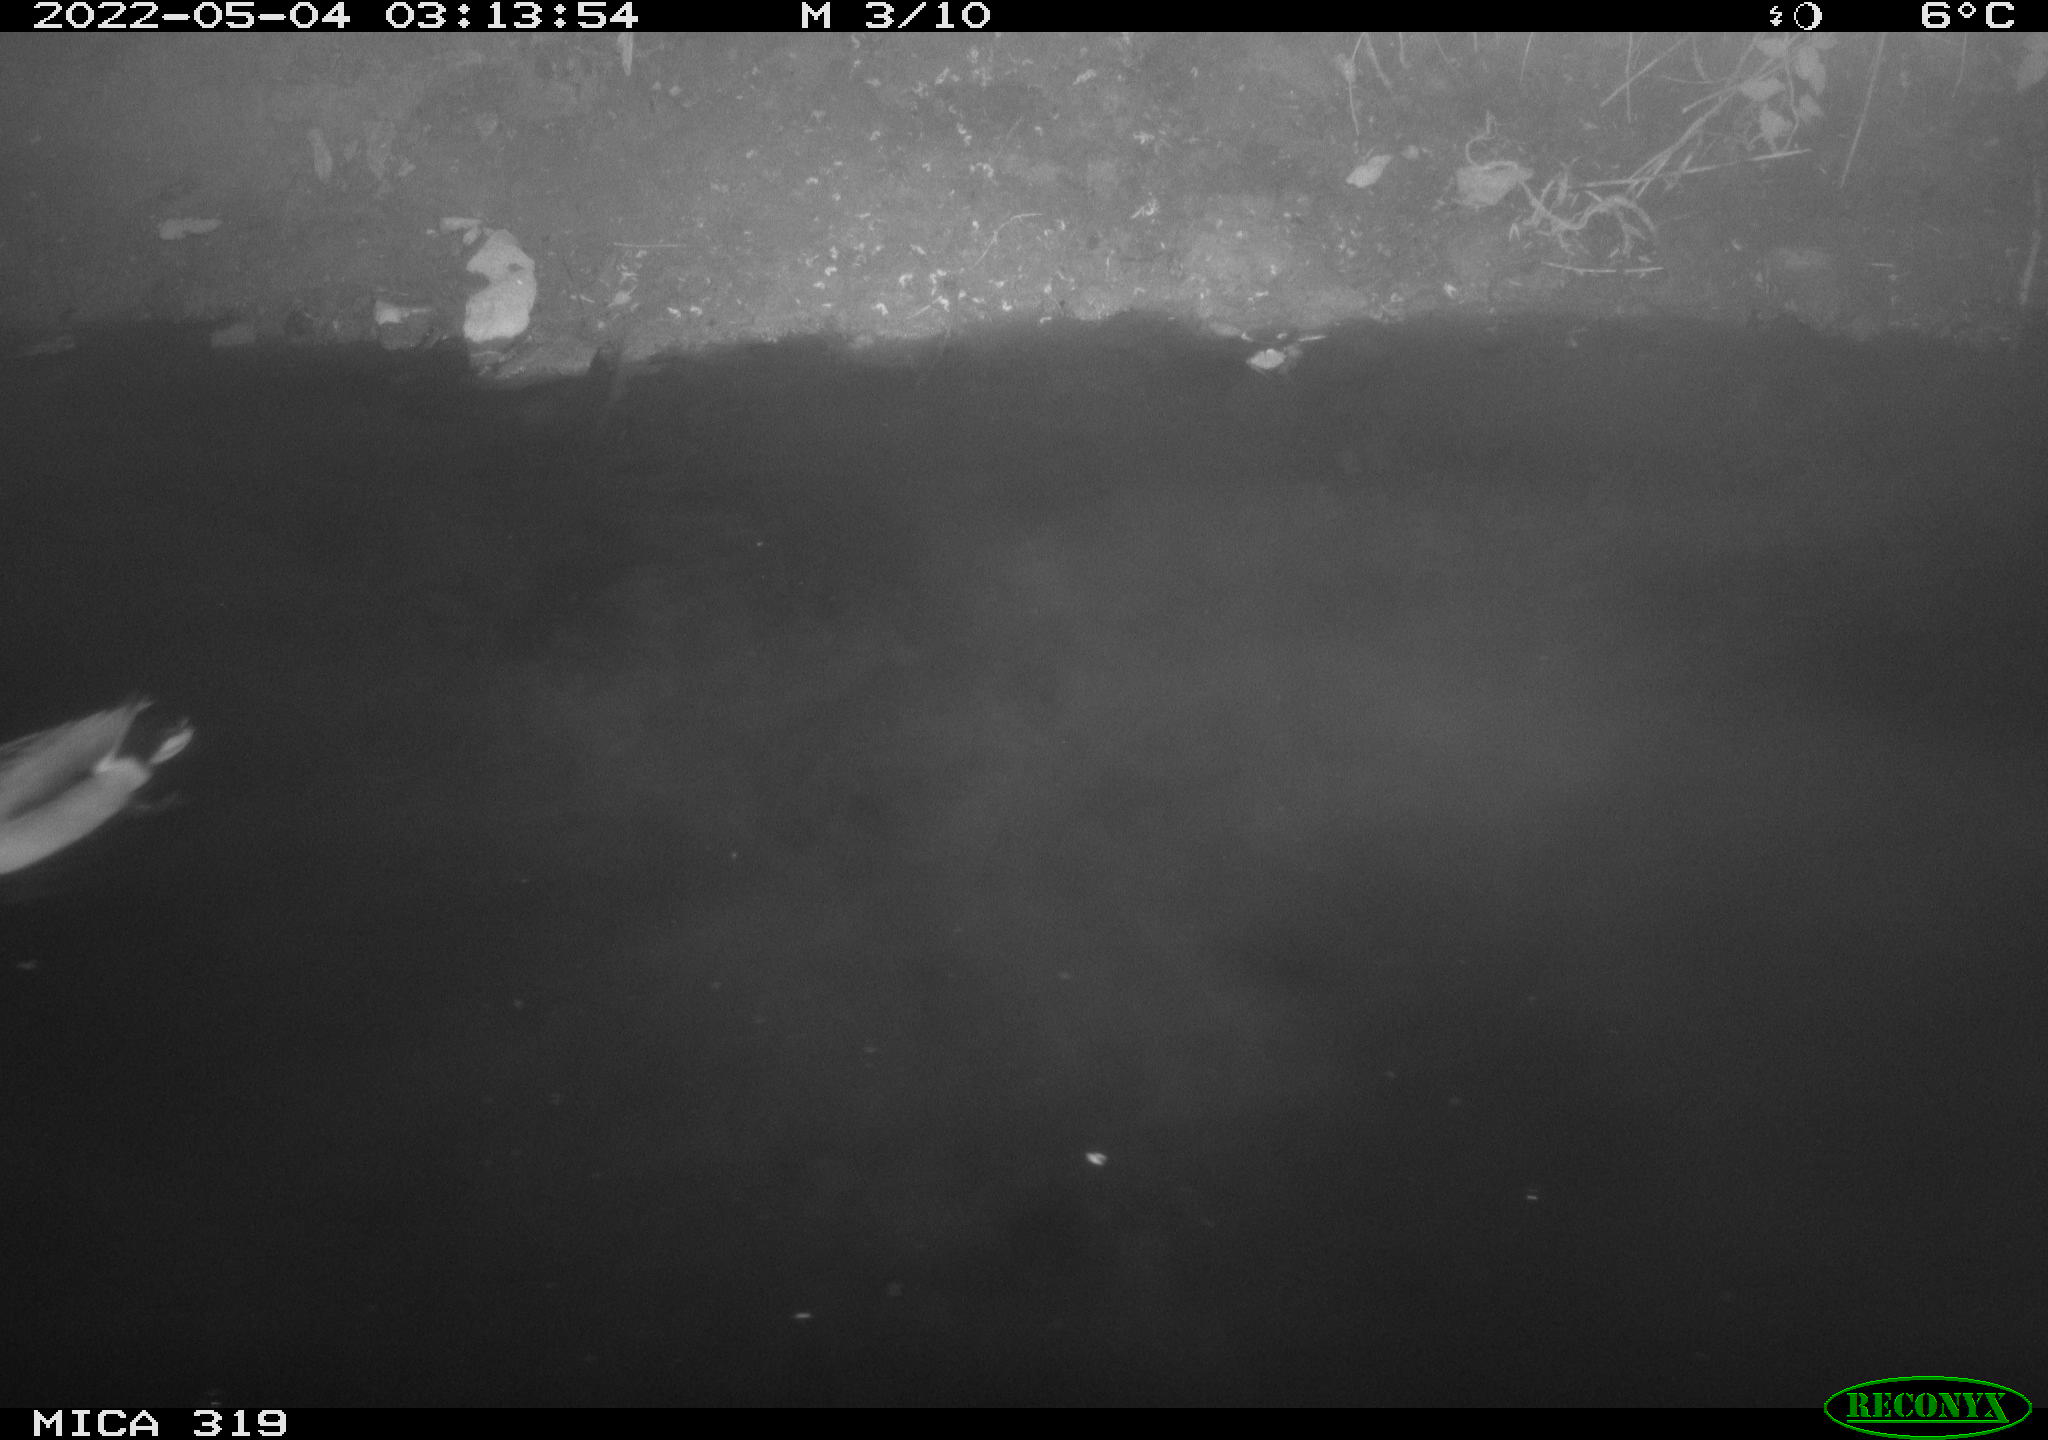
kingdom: Animalia
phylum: Chordata
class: Aves
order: Anseriformes
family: Anatidae
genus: Anas
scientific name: Anas platyrhynchos
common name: Mallard
